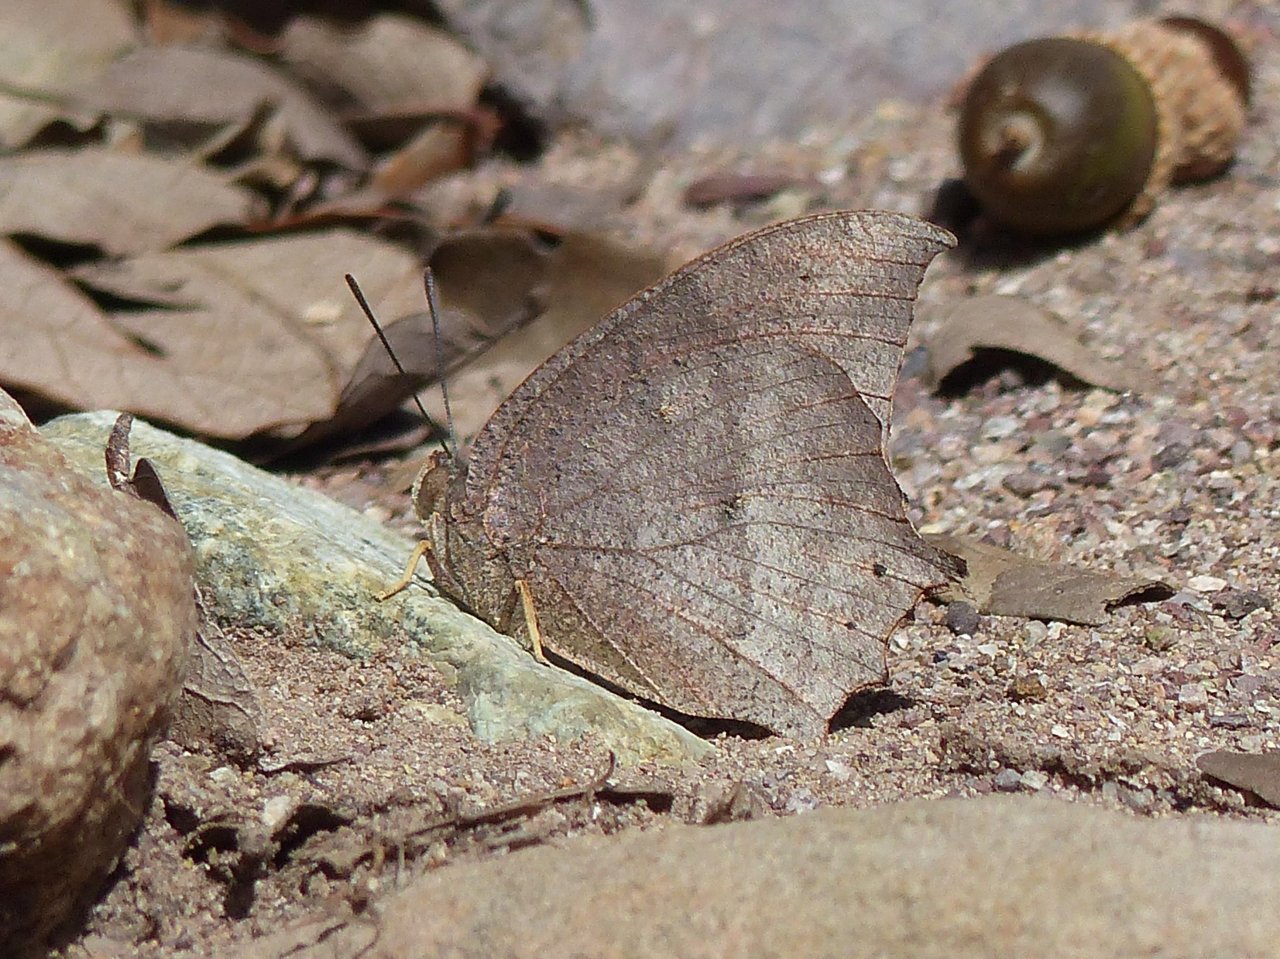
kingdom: Animalia
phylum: Arthropoda
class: Insecta
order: Lepidoptera
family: Nymphalidae
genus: Anaea
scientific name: Anaea aidea
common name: Tropical Leafwing
